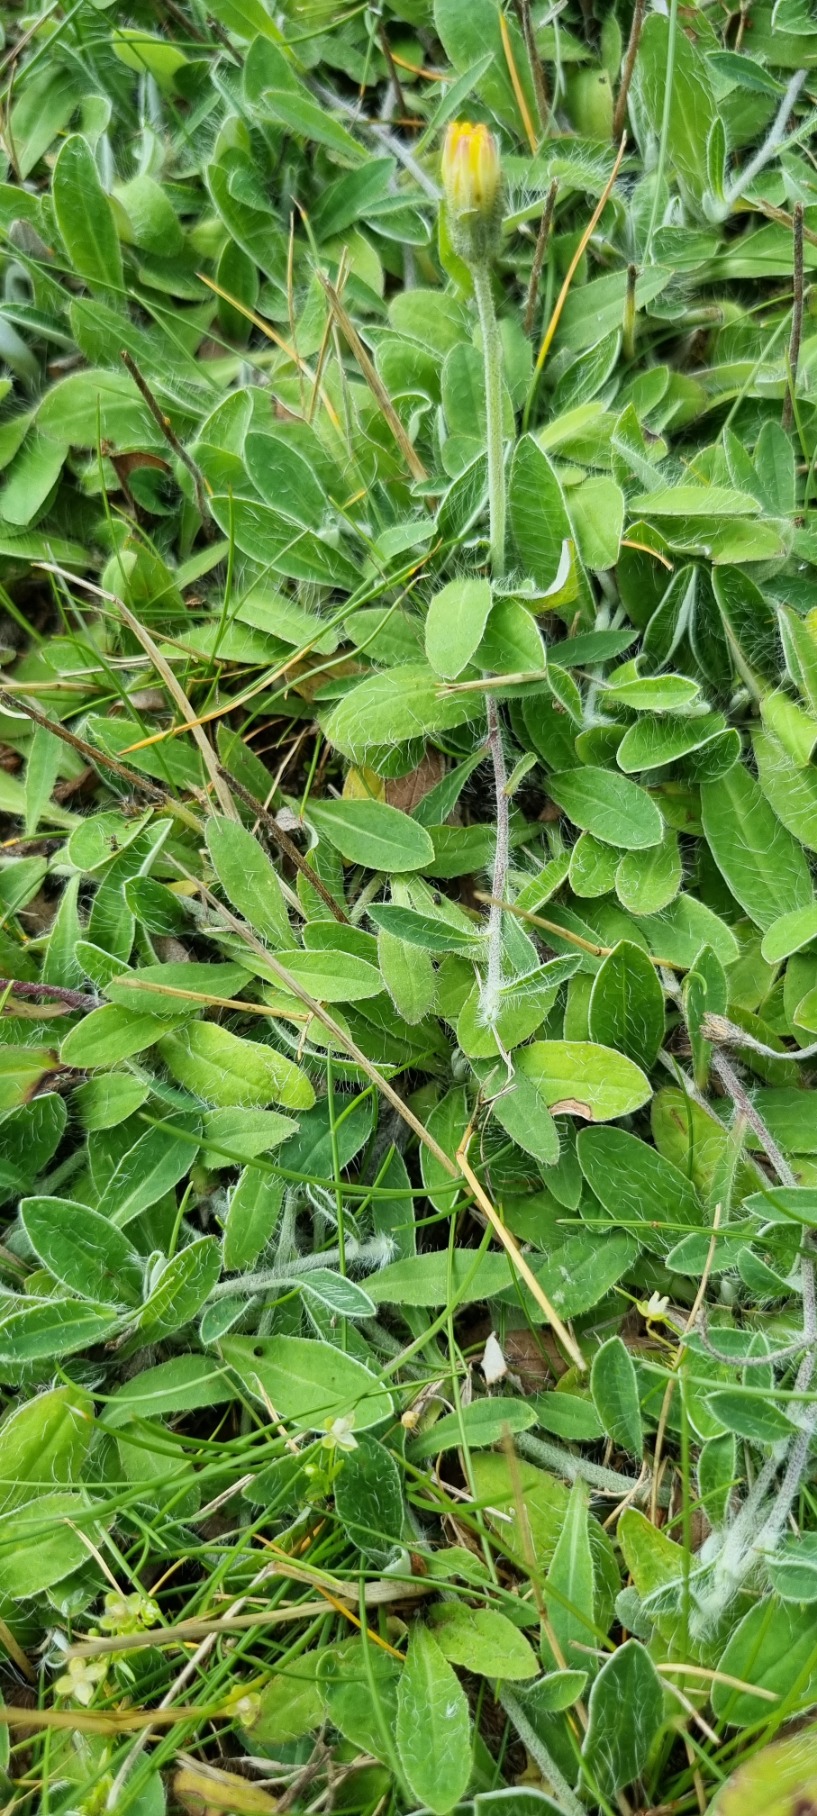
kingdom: Plantae
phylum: Tracheophyta
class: Magnoliopsida
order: Asterales
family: Asteraceae
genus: Pilosella
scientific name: Pilosella officinarum
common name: Håret høgeurt
